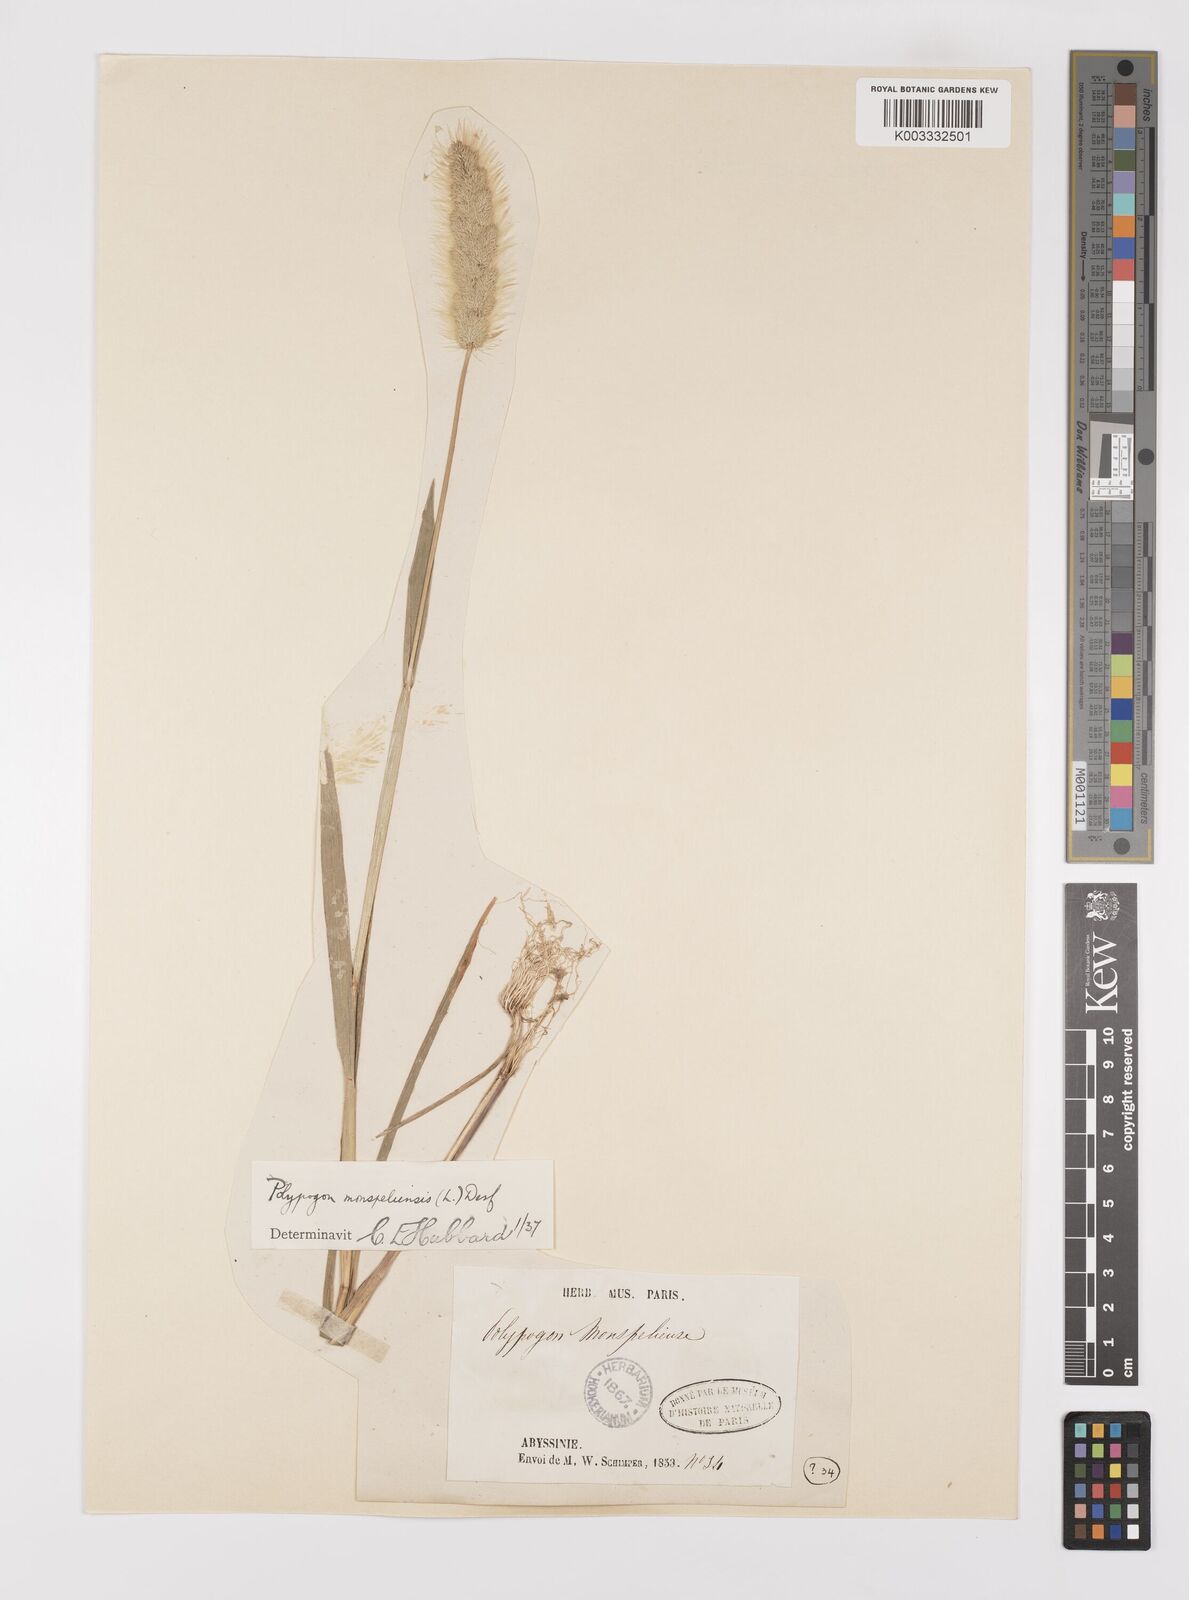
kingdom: Plantae
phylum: Tracheophyta
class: Liliopsida
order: Poales
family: Poaceae
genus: Polypogon
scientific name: Polypogon monspeliensis
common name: Annual rabbitsfoot grass
